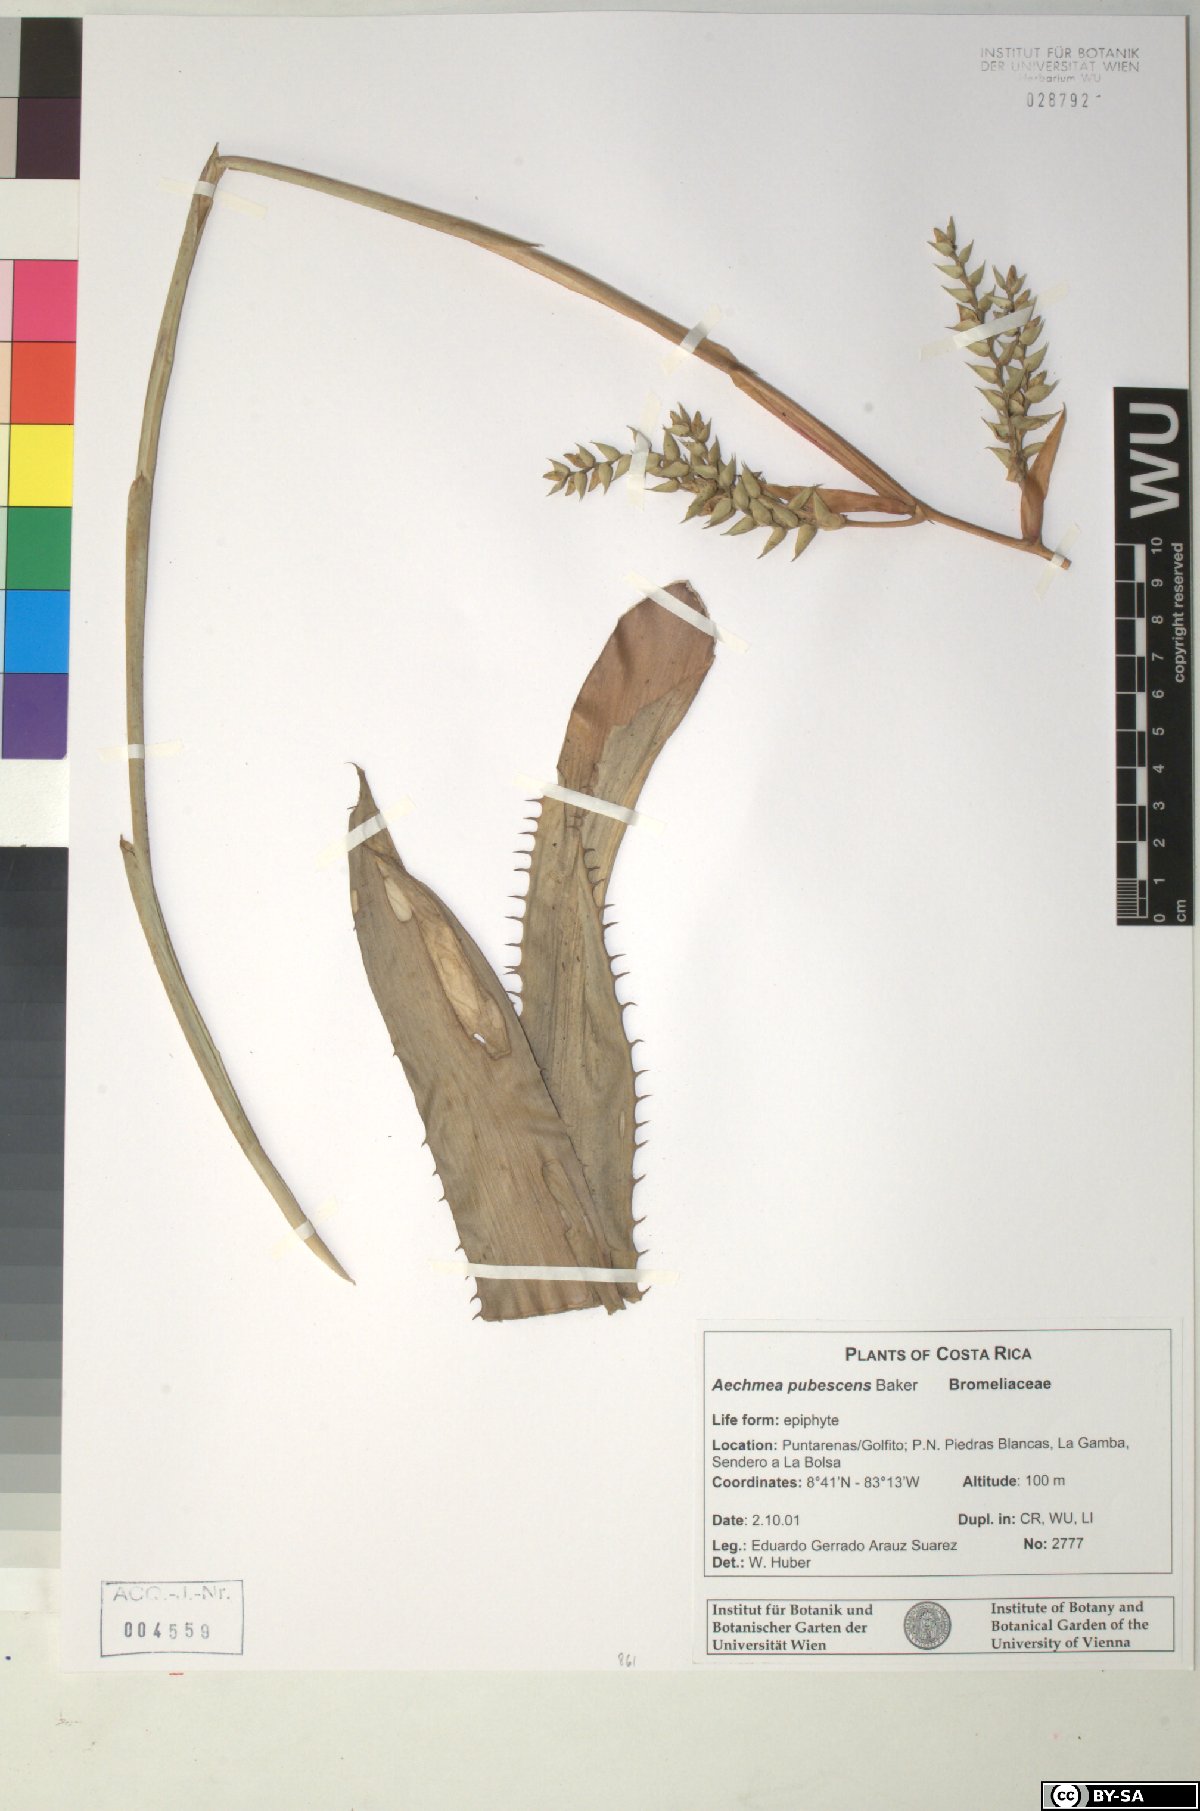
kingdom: Plantae
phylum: Tracheophyta
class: Liliopsida
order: Poales
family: Bromeliaceae
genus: Aechmea
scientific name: Aechmea pubescens
